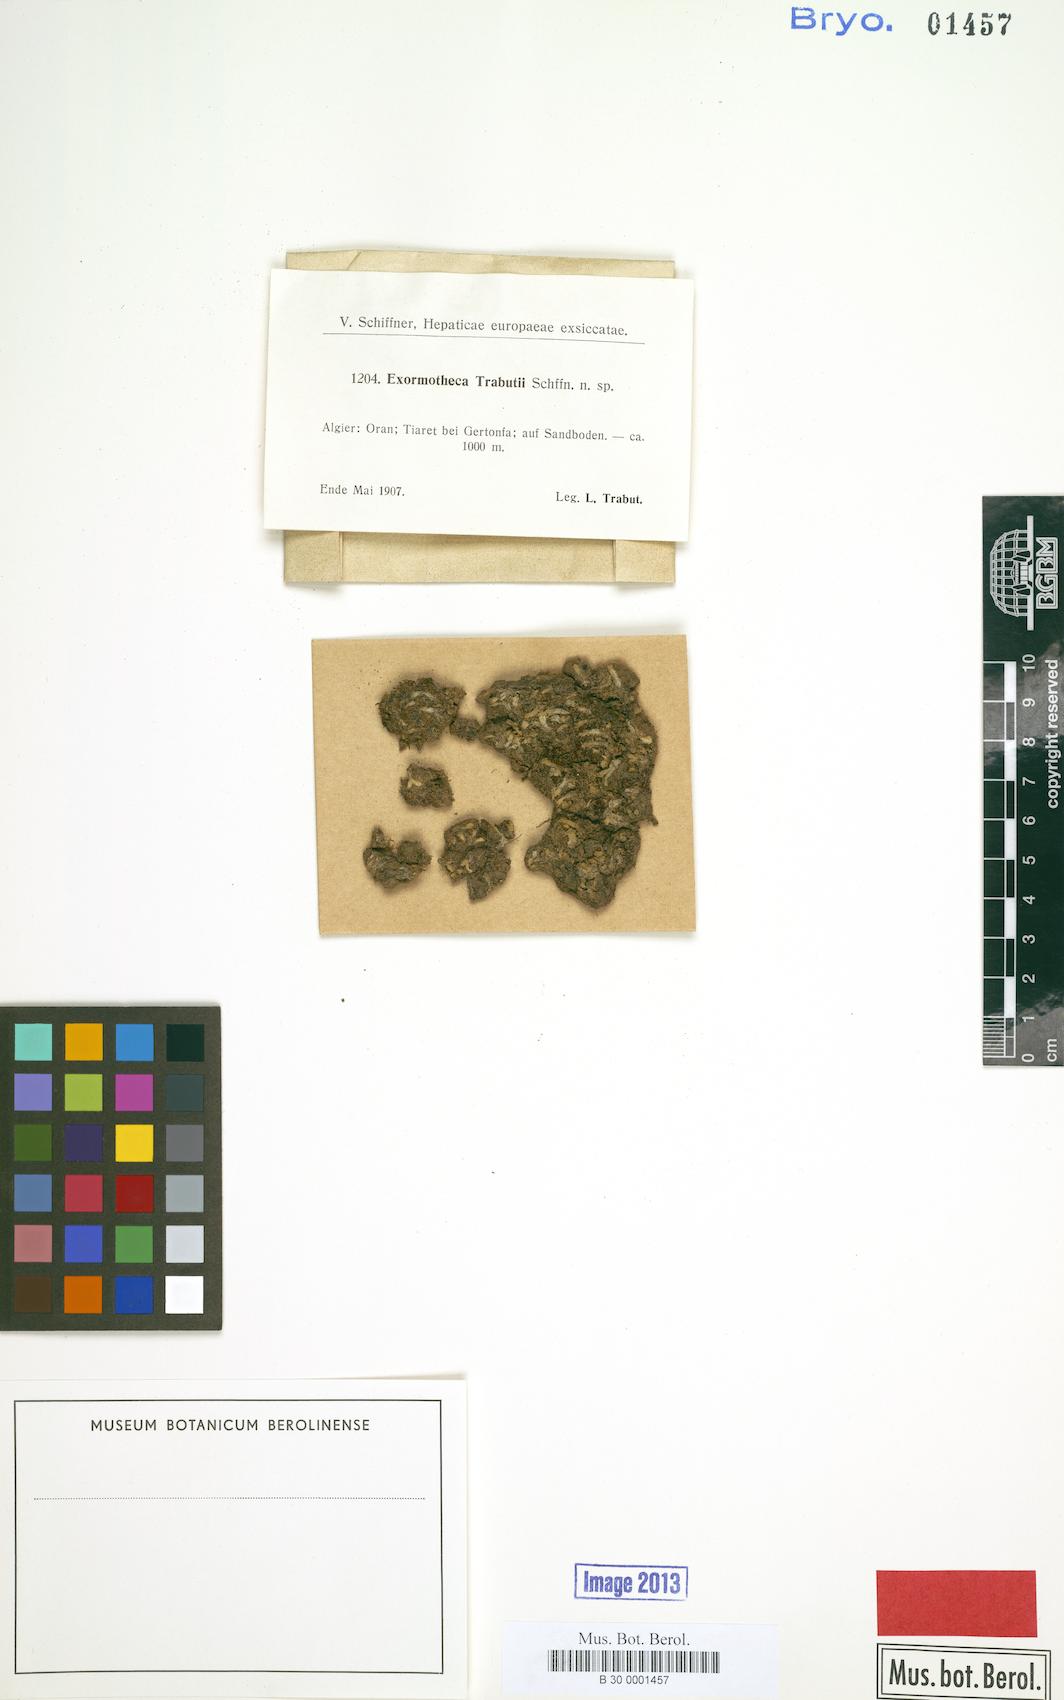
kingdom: Plantae
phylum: Marchantiophyta
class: Marchantiopsida
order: Marchantiales
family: Corsiniaceae
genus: Exormotheca
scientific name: Exormotheca
